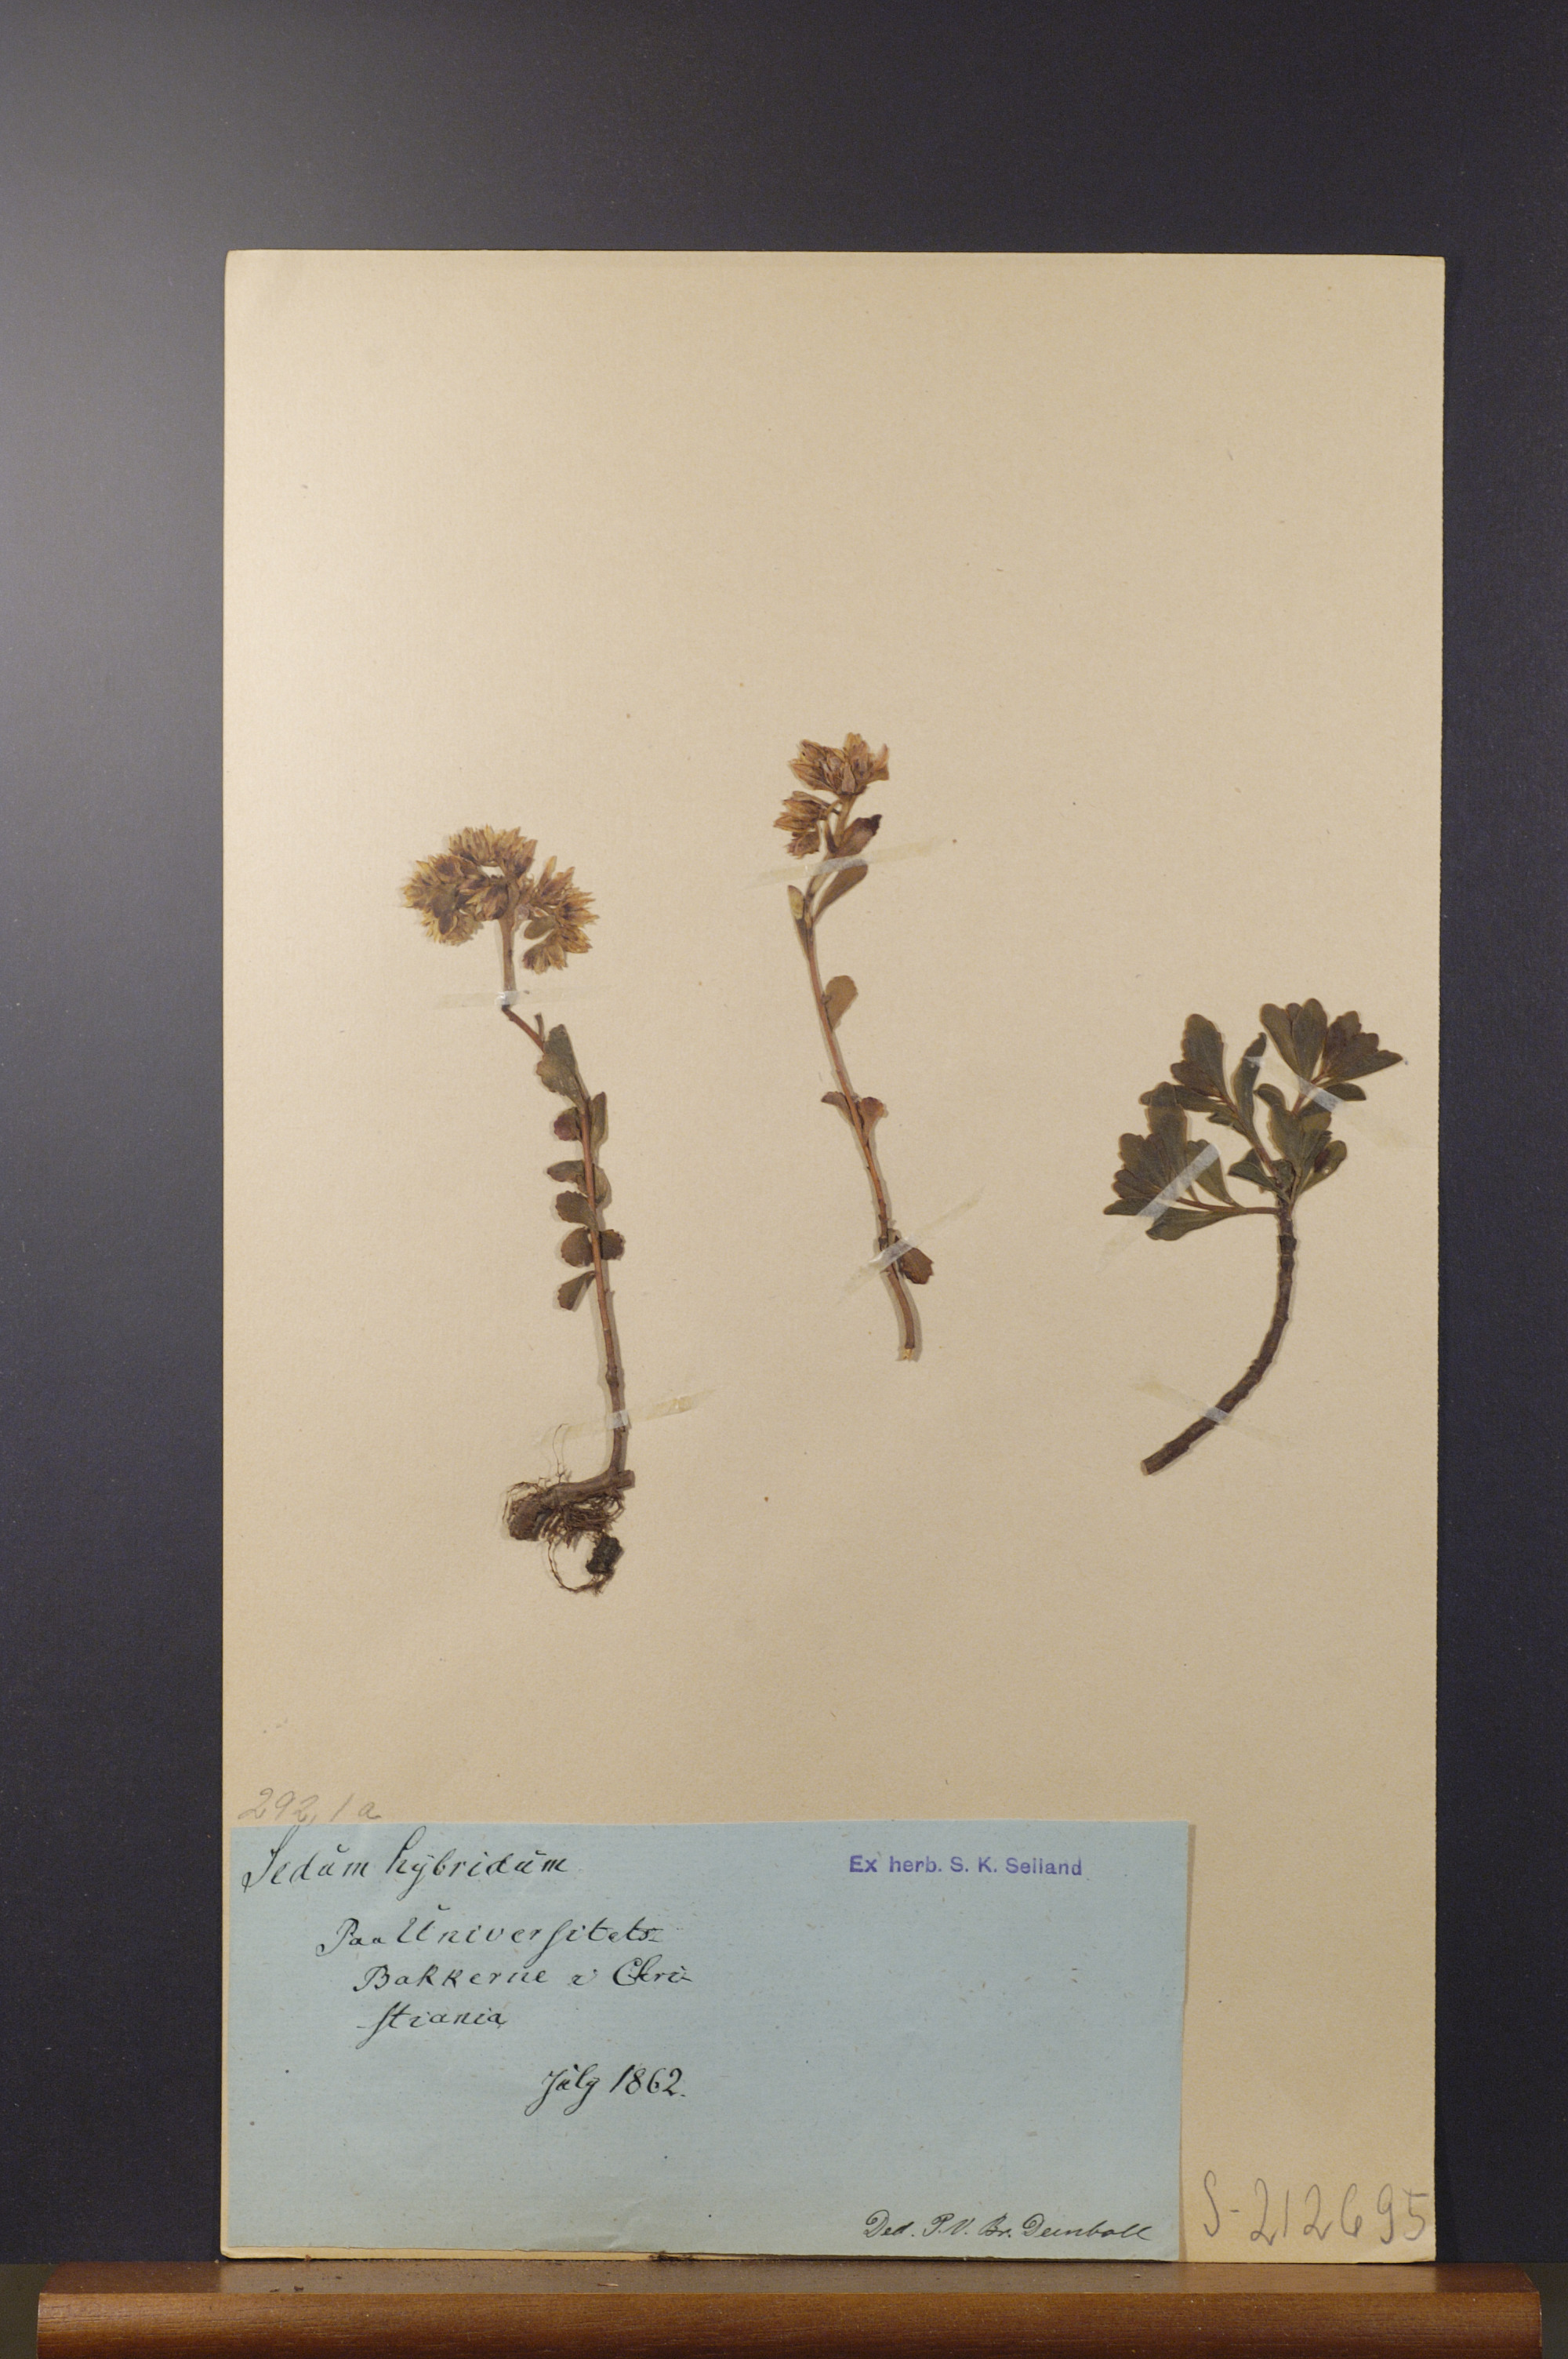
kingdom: Plantae
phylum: Tracheophyta
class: Magnoliopsida
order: Saxifragales
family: Crassulaceae
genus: Phedimus
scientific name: Phedimus hybridus
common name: Hybrid stonecrop
